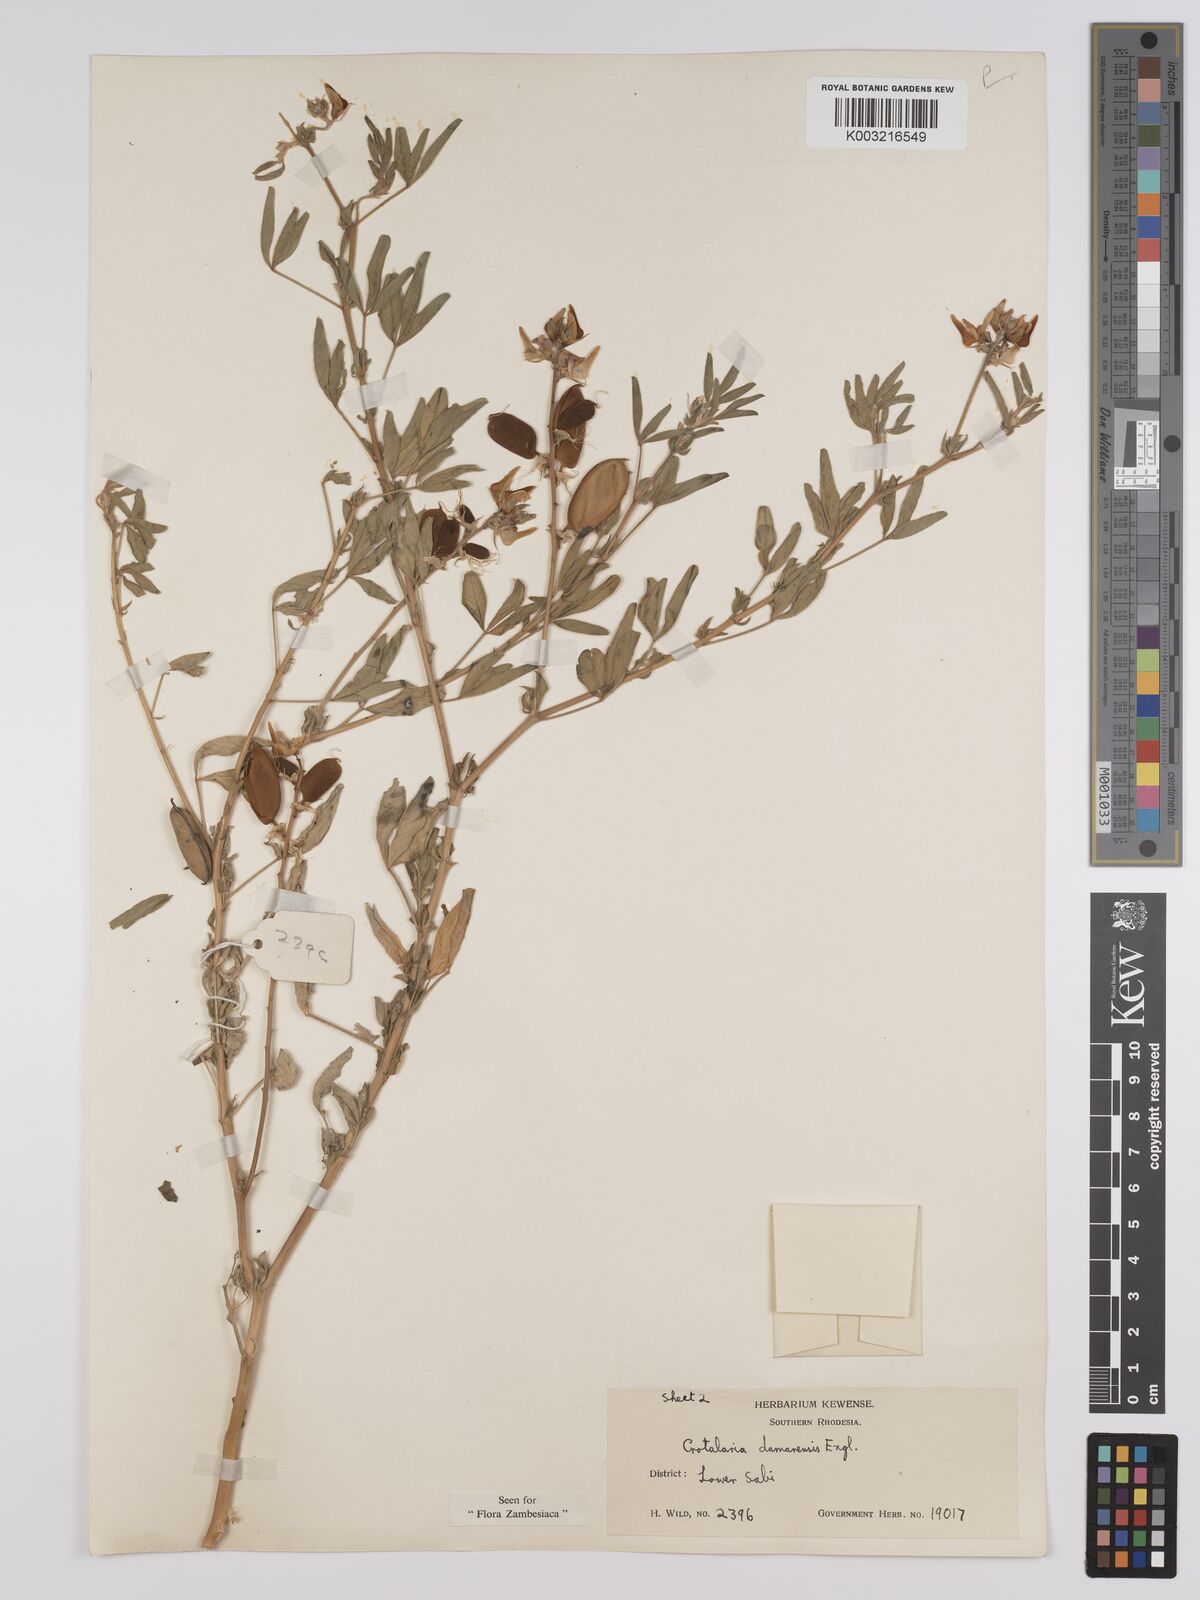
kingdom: Plantae
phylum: Tracheophyta
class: Magnoliopsida
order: Fabales
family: Fabaceae
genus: Crotalaria
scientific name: Crotalaria damarensis
